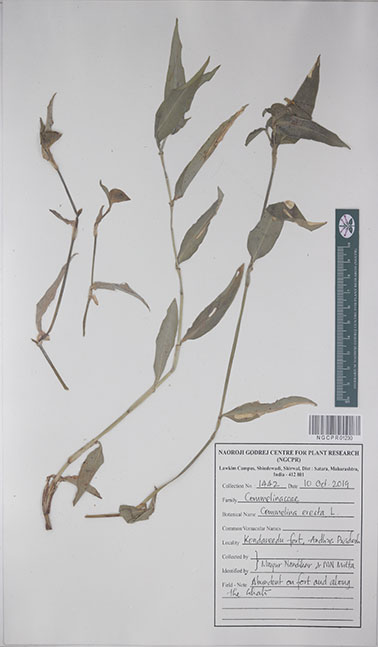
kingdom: Plantae
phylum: Tracheophyta
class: Liliopsida
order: Commelinales
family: Commelinaceae
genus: Commelina
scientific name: Commelina erecta
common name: Blousel blommetjie
